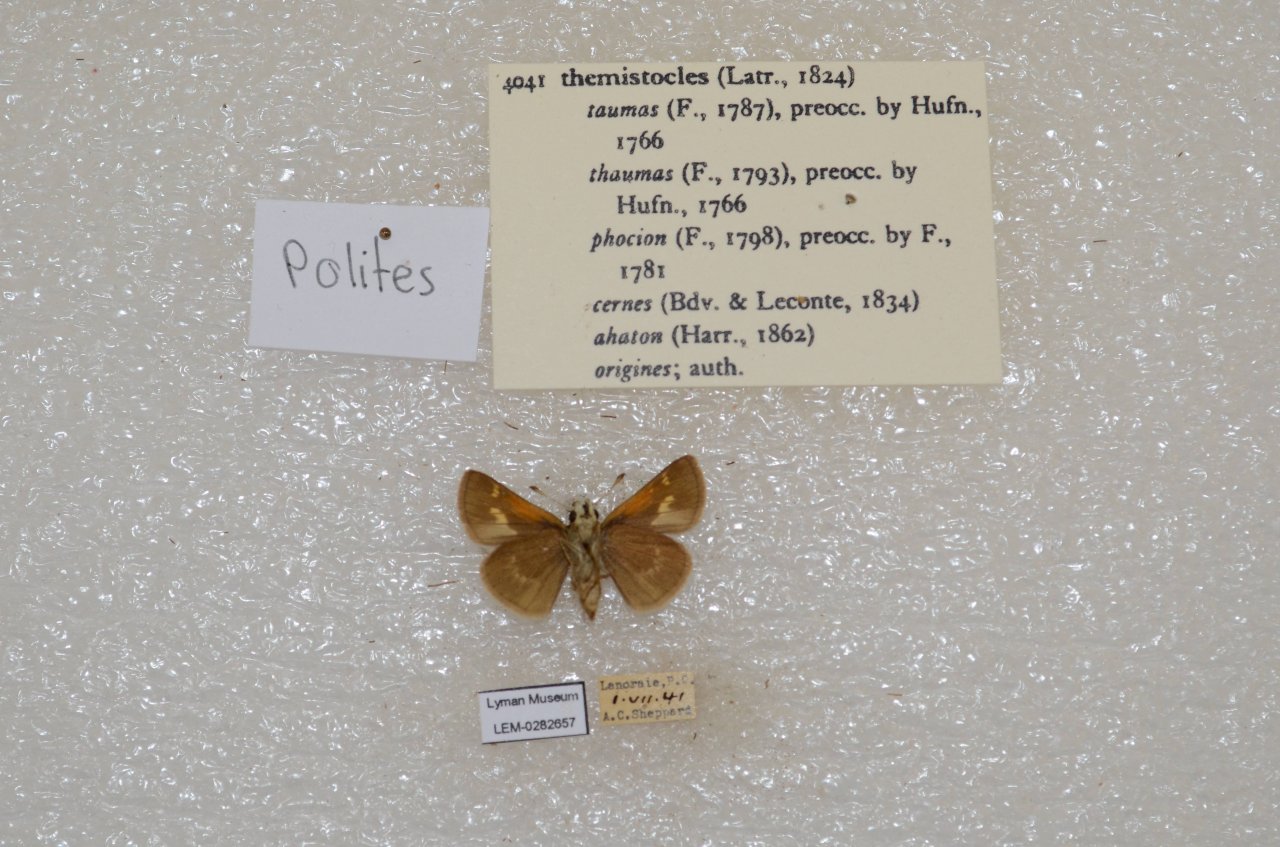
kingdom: Animalia
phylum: Arthropoda
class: Insecta
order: Lepidoptera
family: Hesperiidae
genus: Polites
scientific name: Polites themistocles
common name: Tawny-edged Skipper
